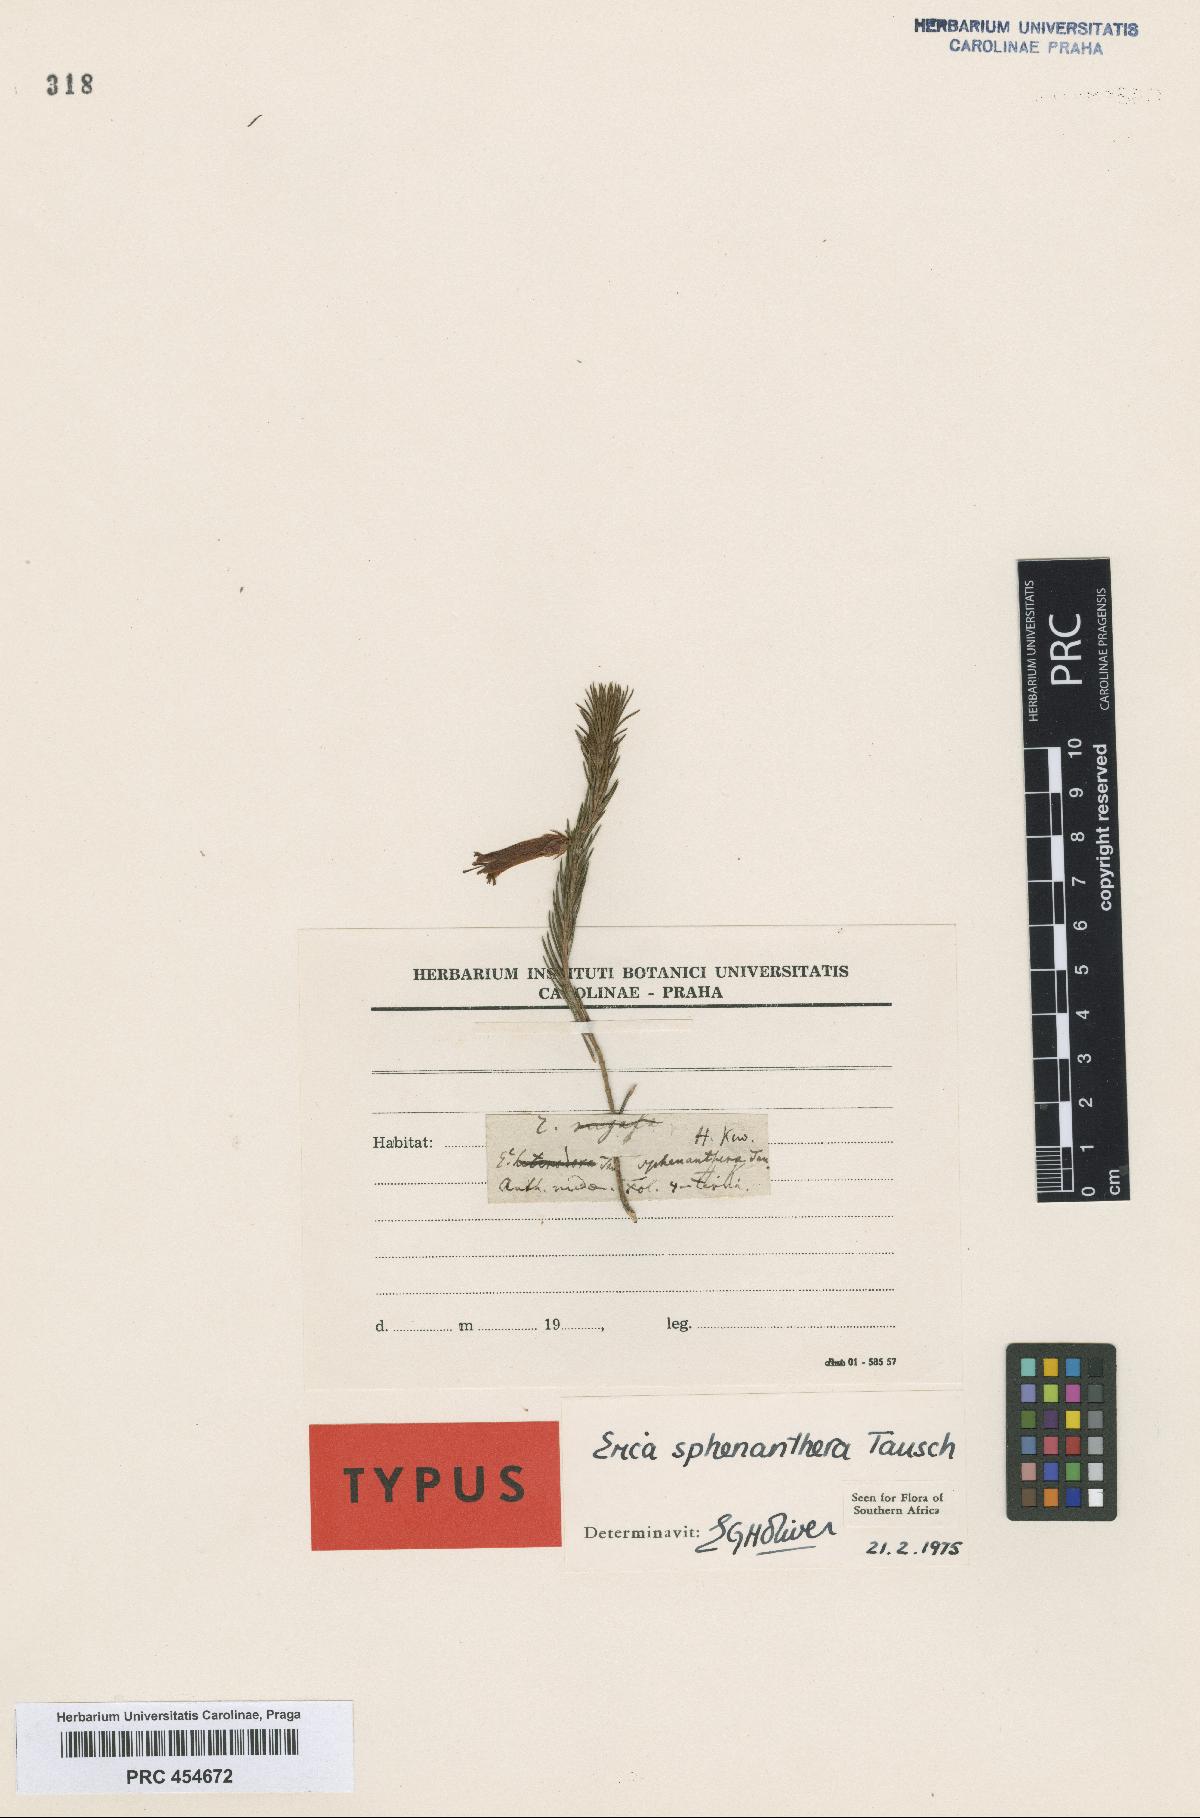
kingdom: Plantae
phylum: Tracheophyta
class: Magnoliopsida
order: Ericales
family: Ericaceae
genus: Erica
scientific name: Erica sphenanthera
